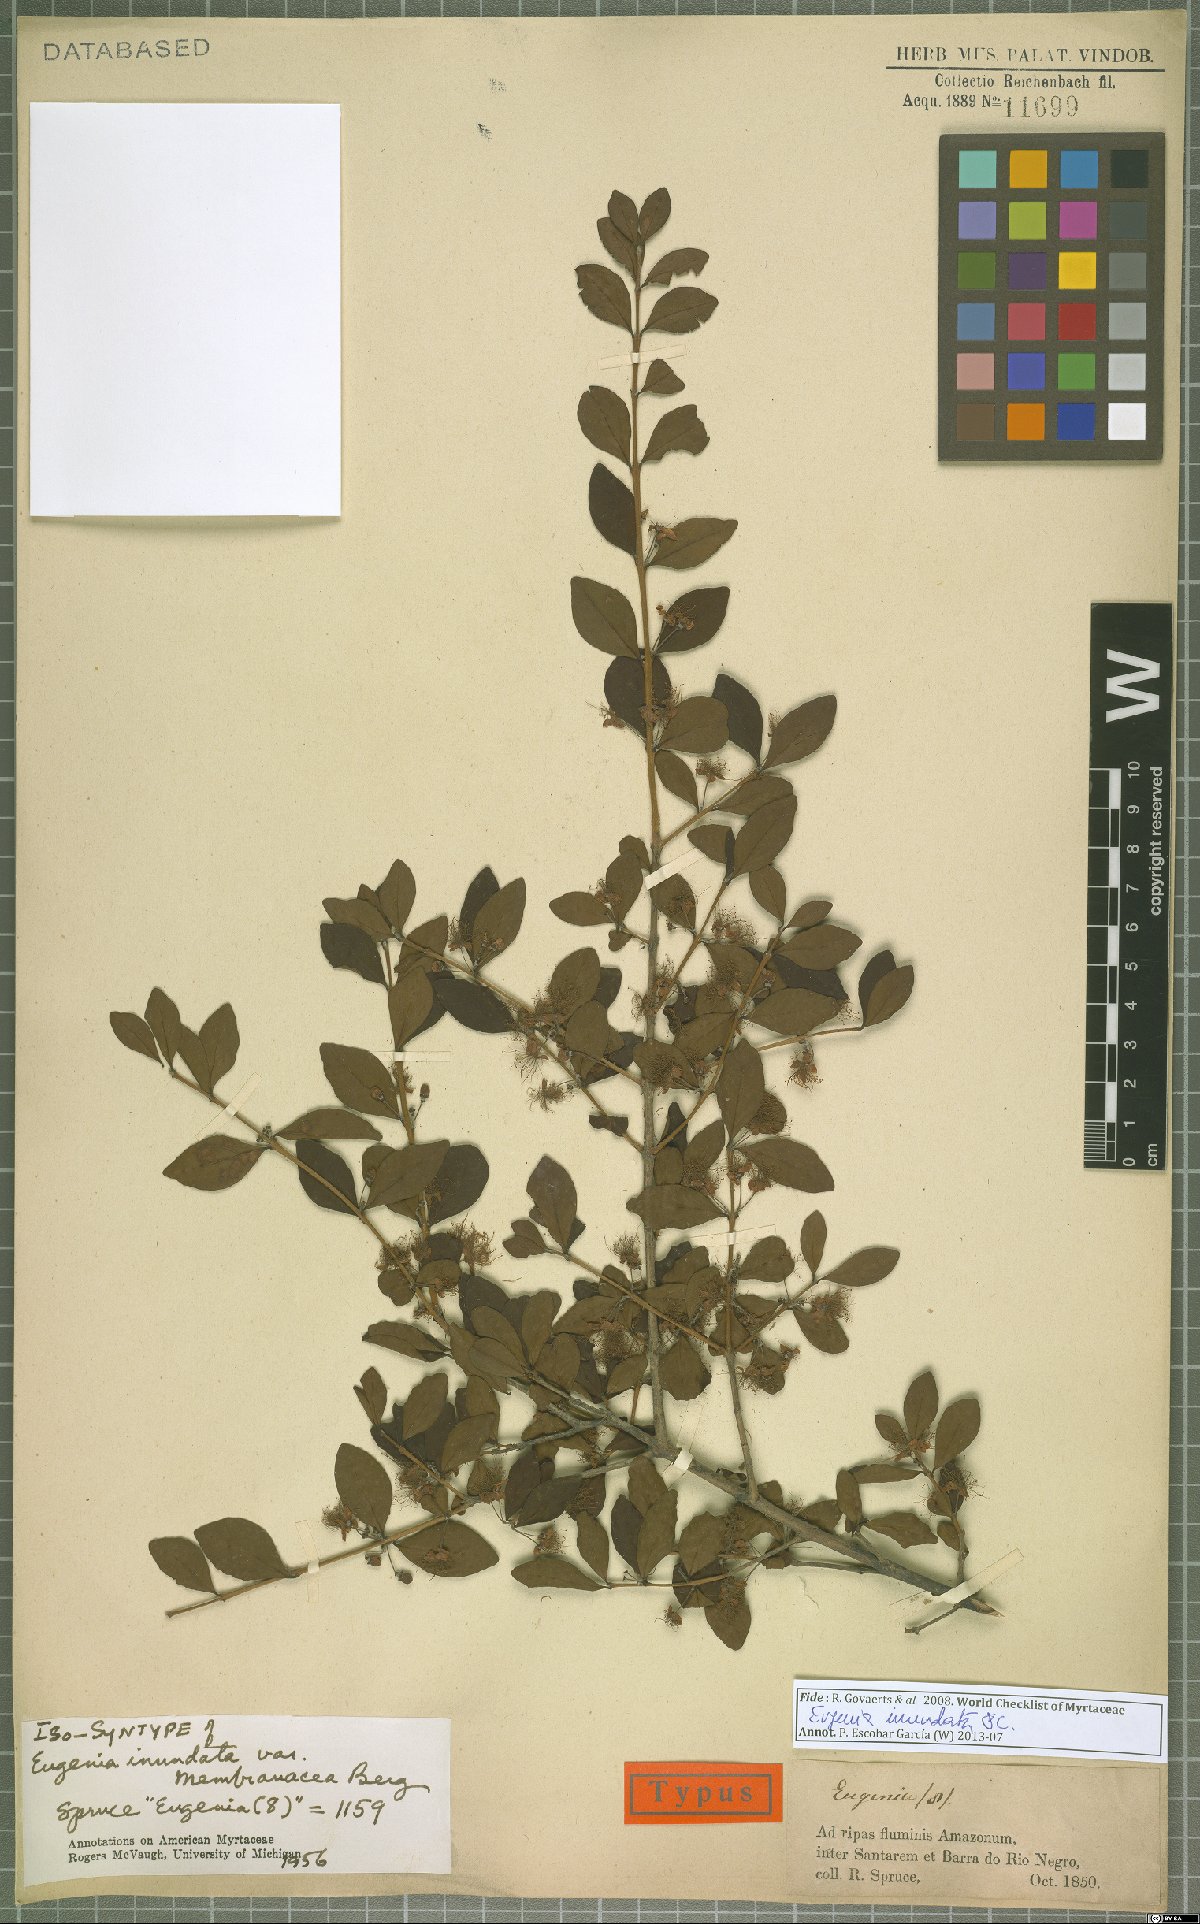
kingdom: Plantae
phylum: Tracheophyta
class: Magnoliopsida
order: Myrtales
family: Myrtaceae
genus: Eugenia
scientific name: Eugenia inundata
